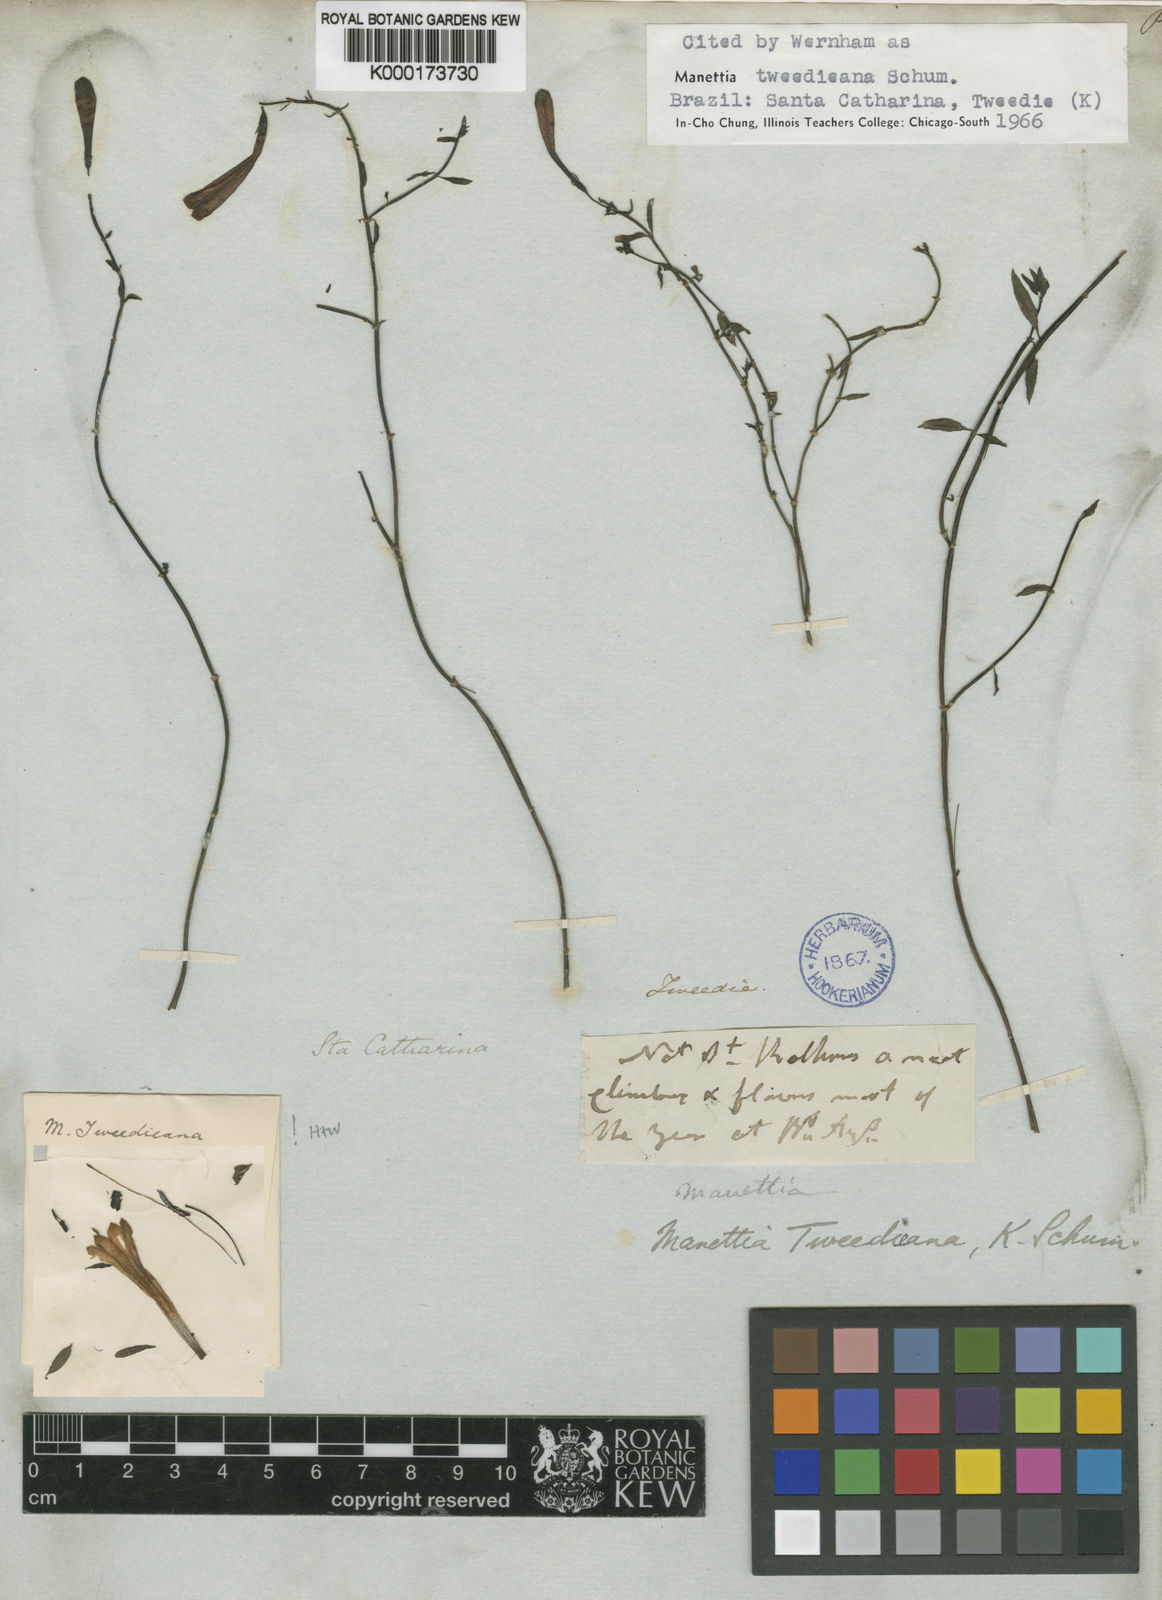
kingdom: Plantae
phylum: Tracheophyta
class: Magnoliopsida
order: Gentianales
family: Rubiaceae
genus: Manettia
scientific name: Manettia
